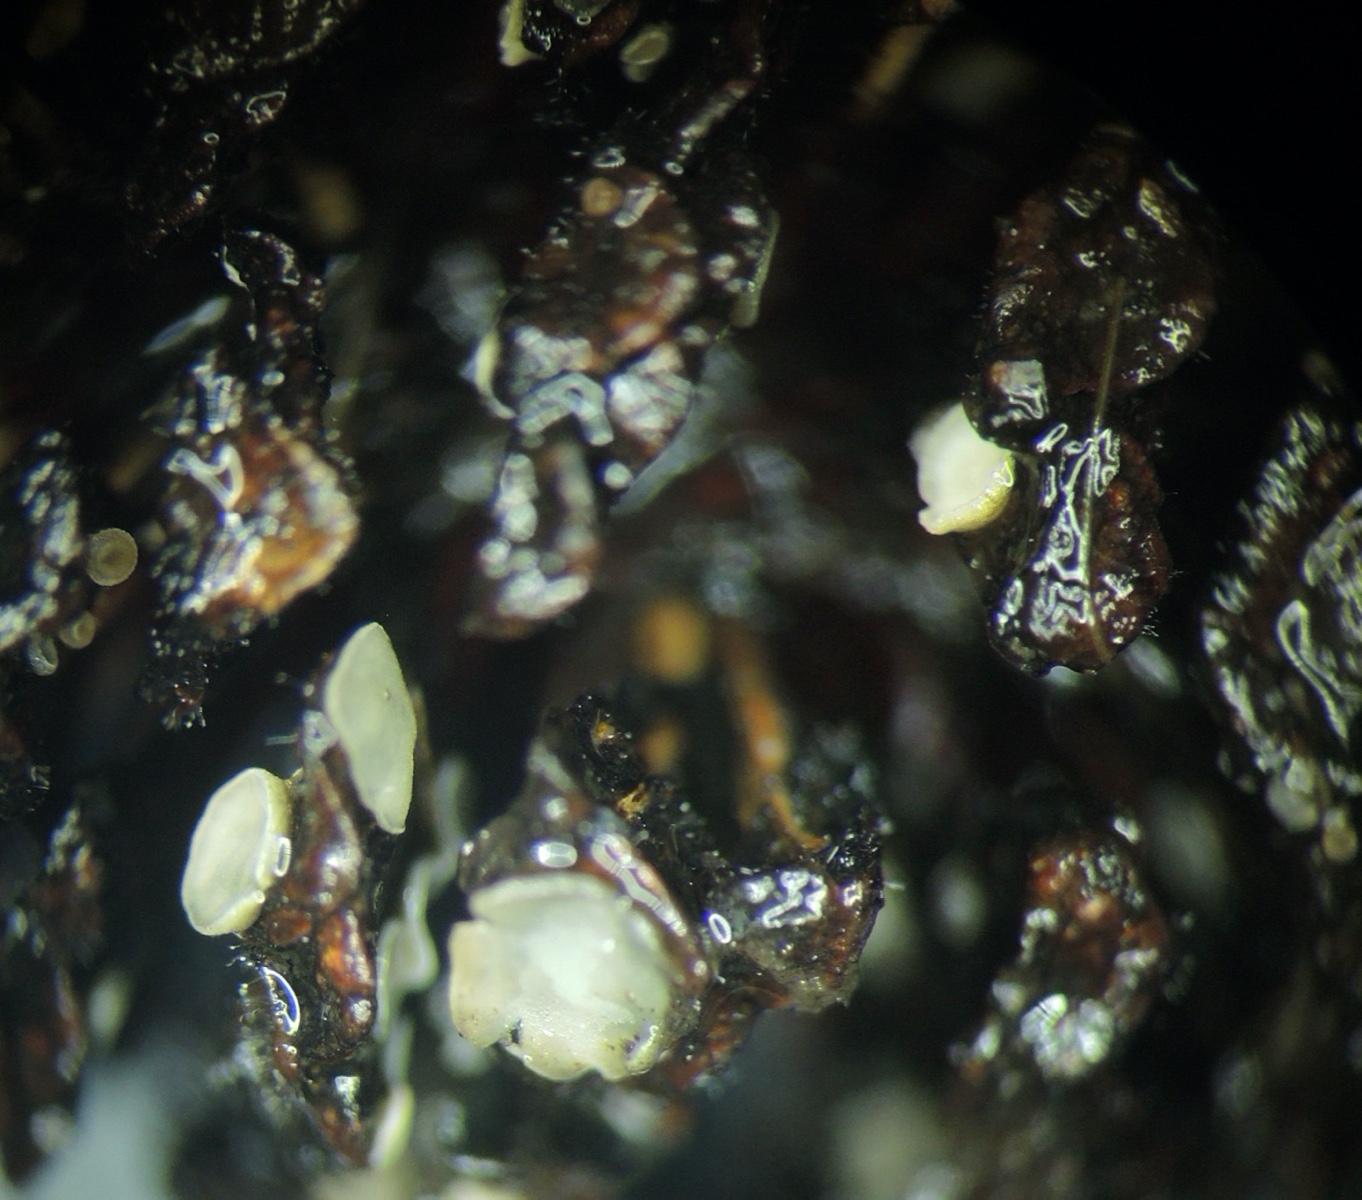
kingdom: Fungi
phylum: Ascomycota
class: Leotiomycetes
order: Helotiales
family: Pezizellaceae
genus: Calycina
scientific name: Calycina alniella
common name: ellekogle-stilkskive
